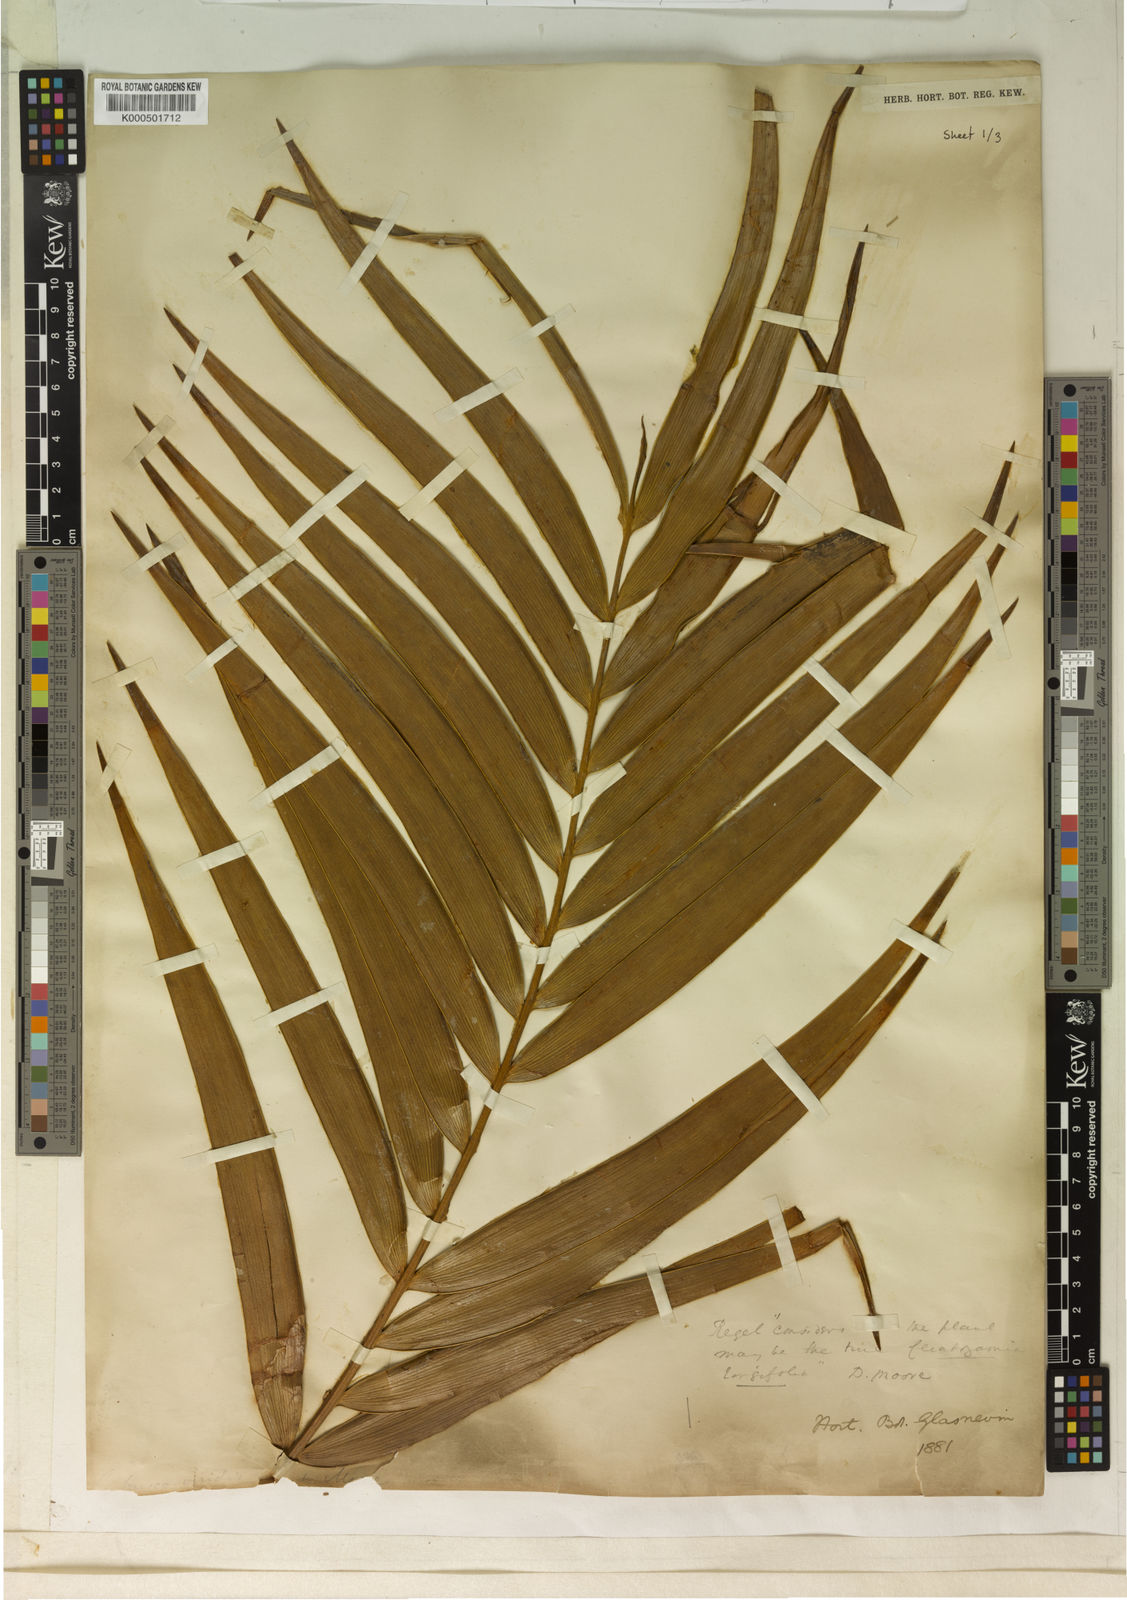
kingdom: Plantae
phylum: Tracheophyta
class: Cycadopsida
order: Cycadales
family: Zamiaceae
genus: Ceratozamia
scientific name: Ceratozamia
